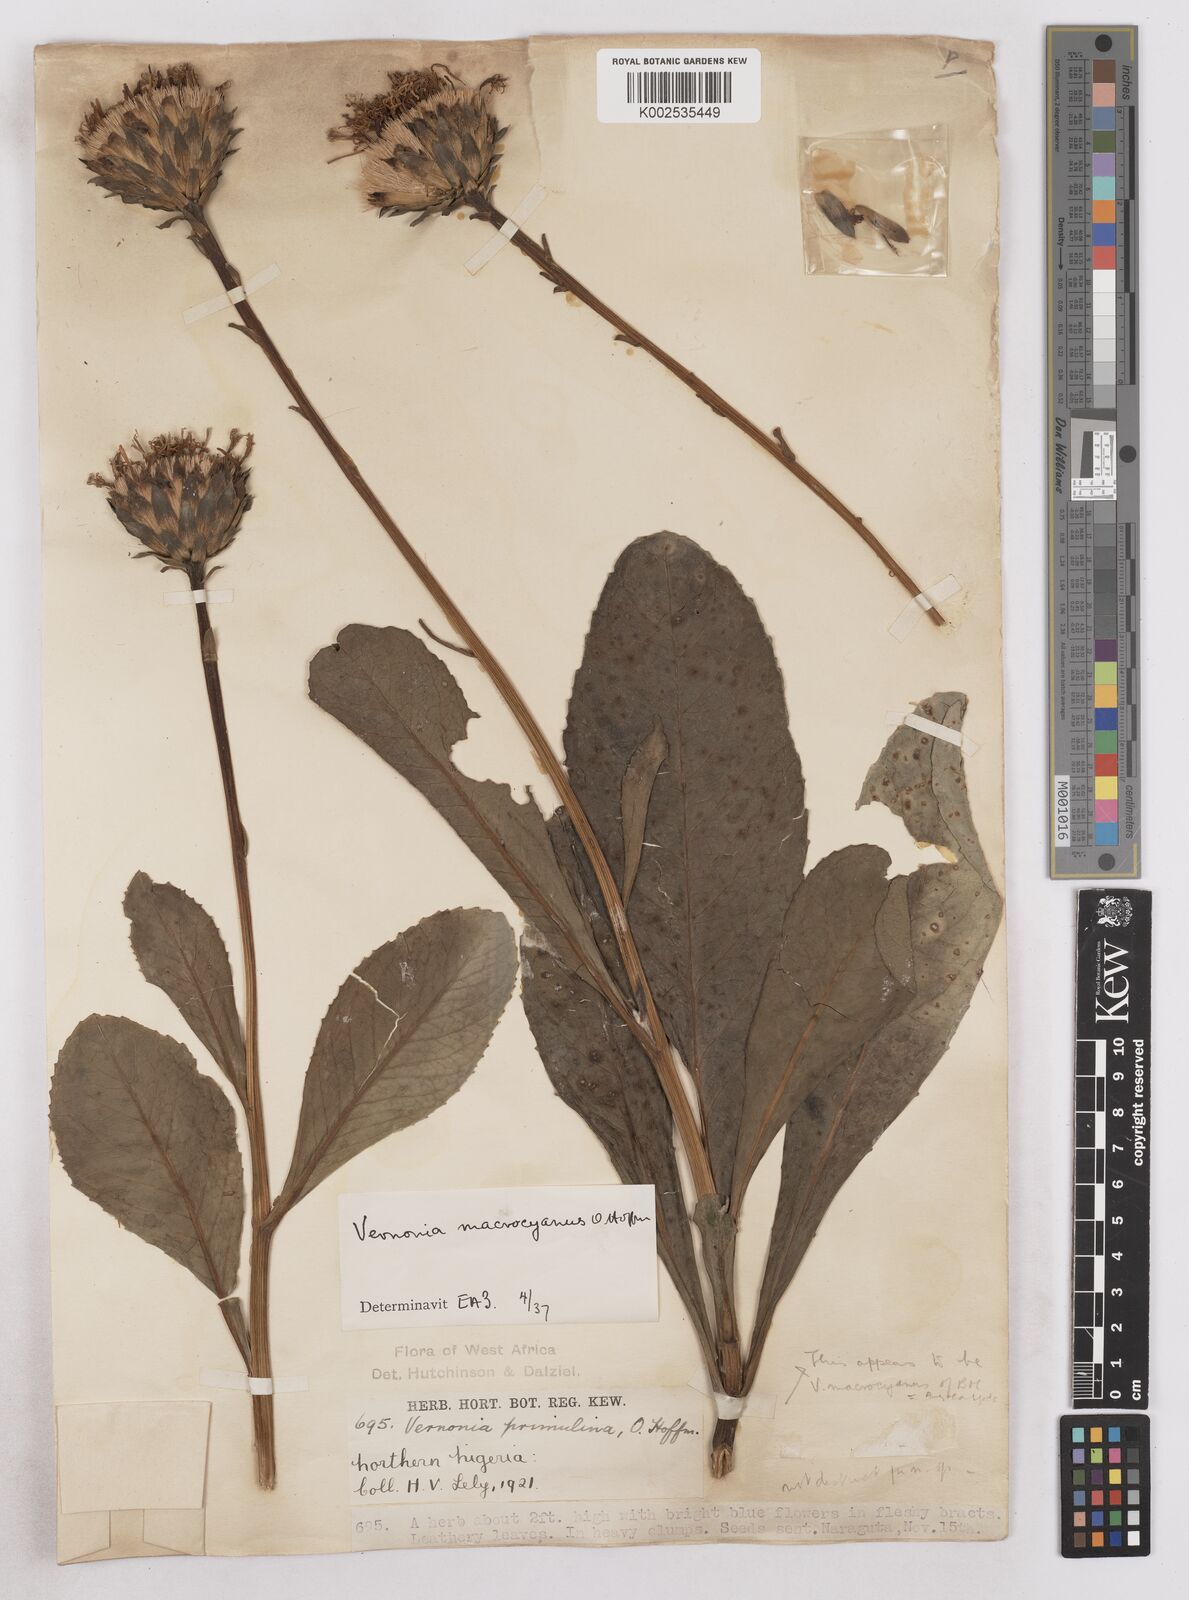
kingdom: Plantae
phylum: Tracheophyta
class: Magnoliopsida
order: Asterales
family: Asteraceae
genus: Linzia
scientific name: Linzia gerberiformis
